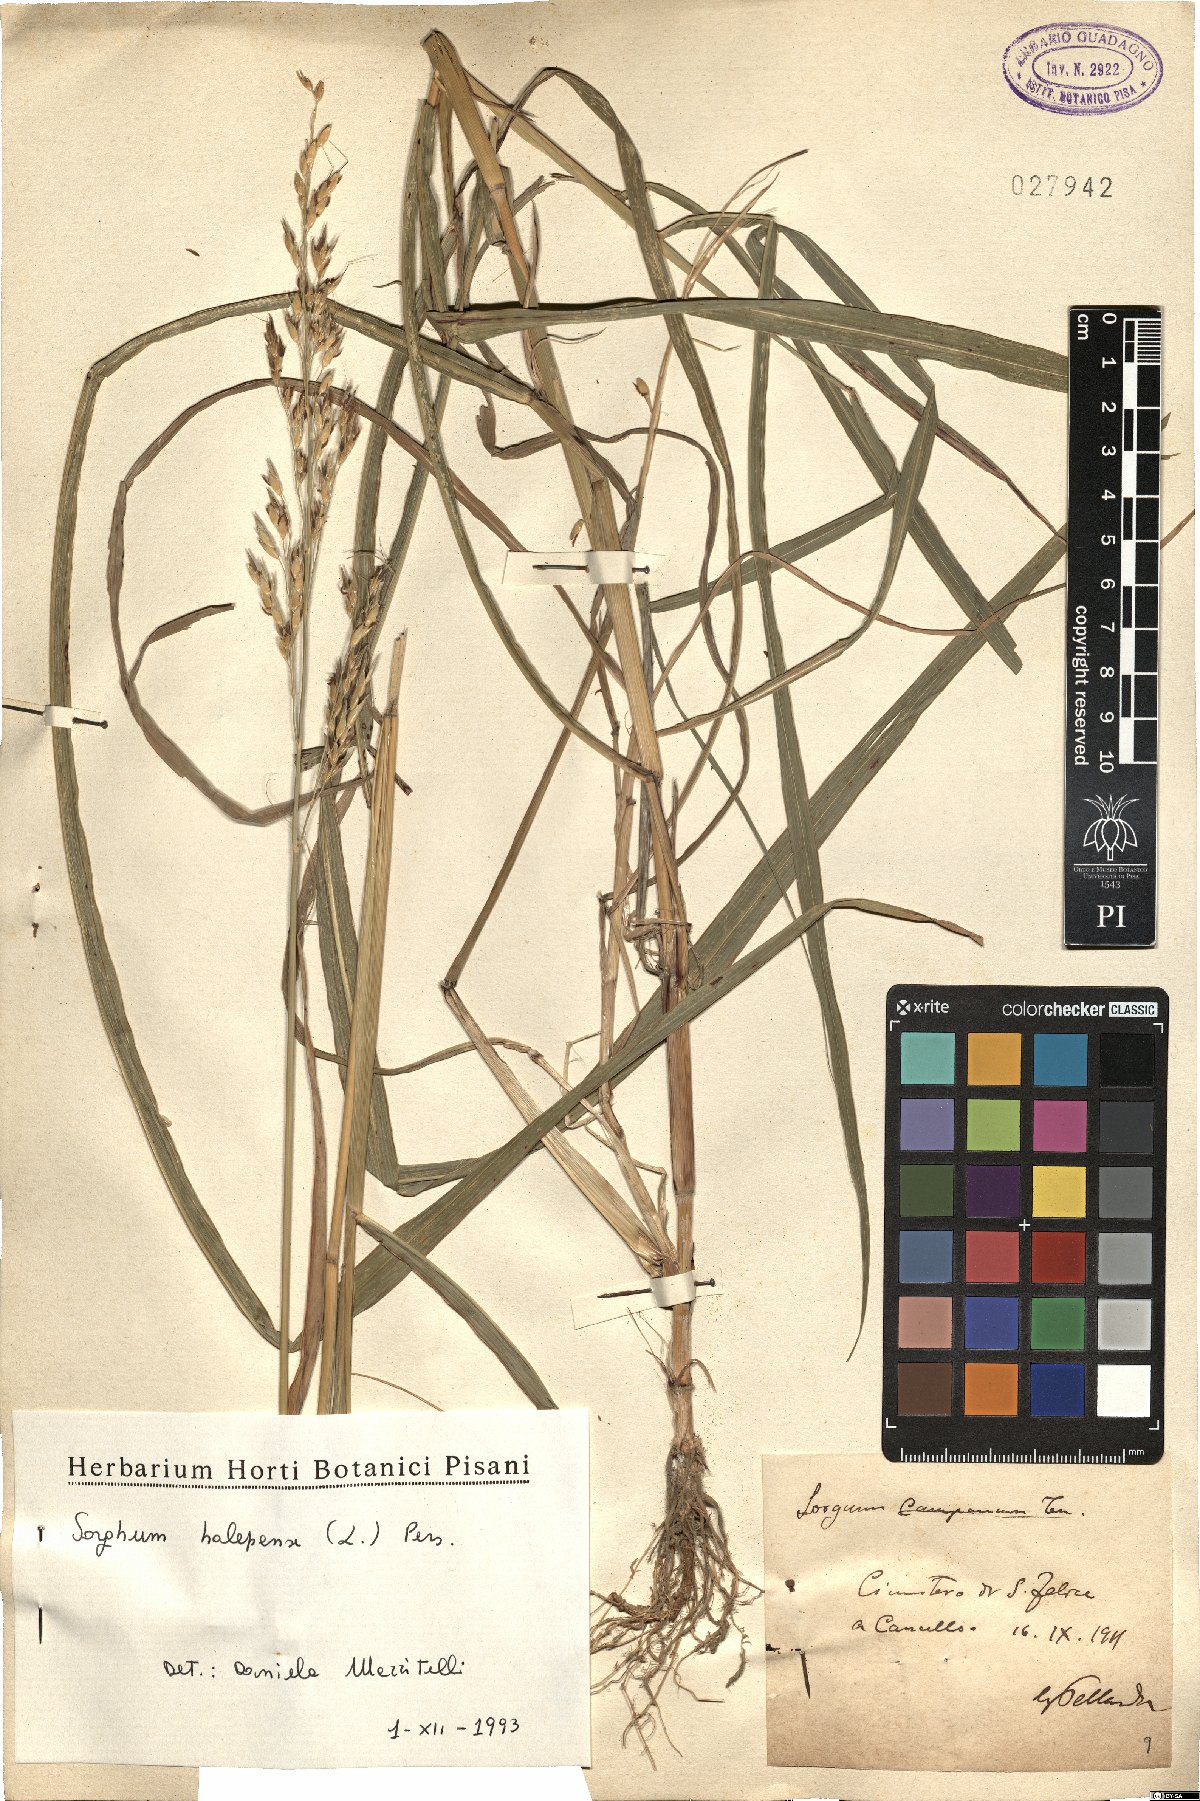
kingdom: Plantae
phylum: Tracheophyta
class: Liliopsida
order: Poales
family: Poaceae
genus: Sorghum
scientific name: Sorghum halepense
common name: Johnson-grass
